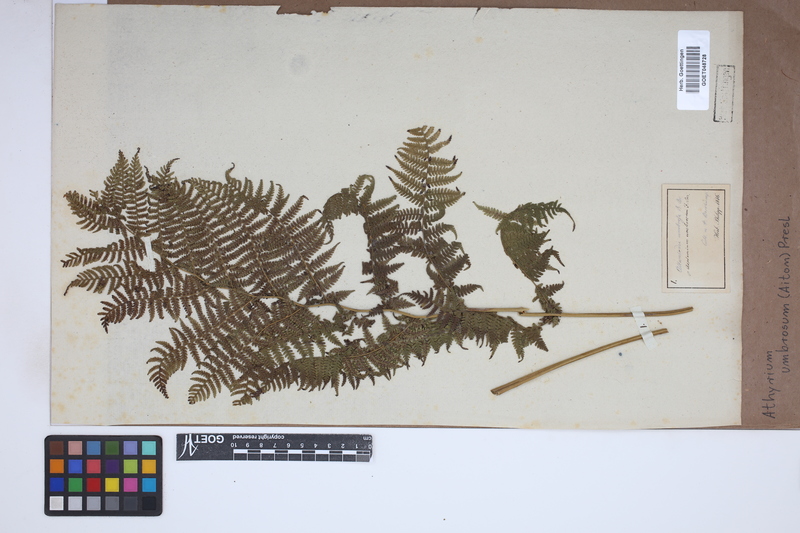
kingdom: Plantae
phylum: Tracheophyta
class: Polypodiopsida
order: Polypodiales
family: Athyriaceae
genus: Diplazium
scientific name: Diplazium caudatum
